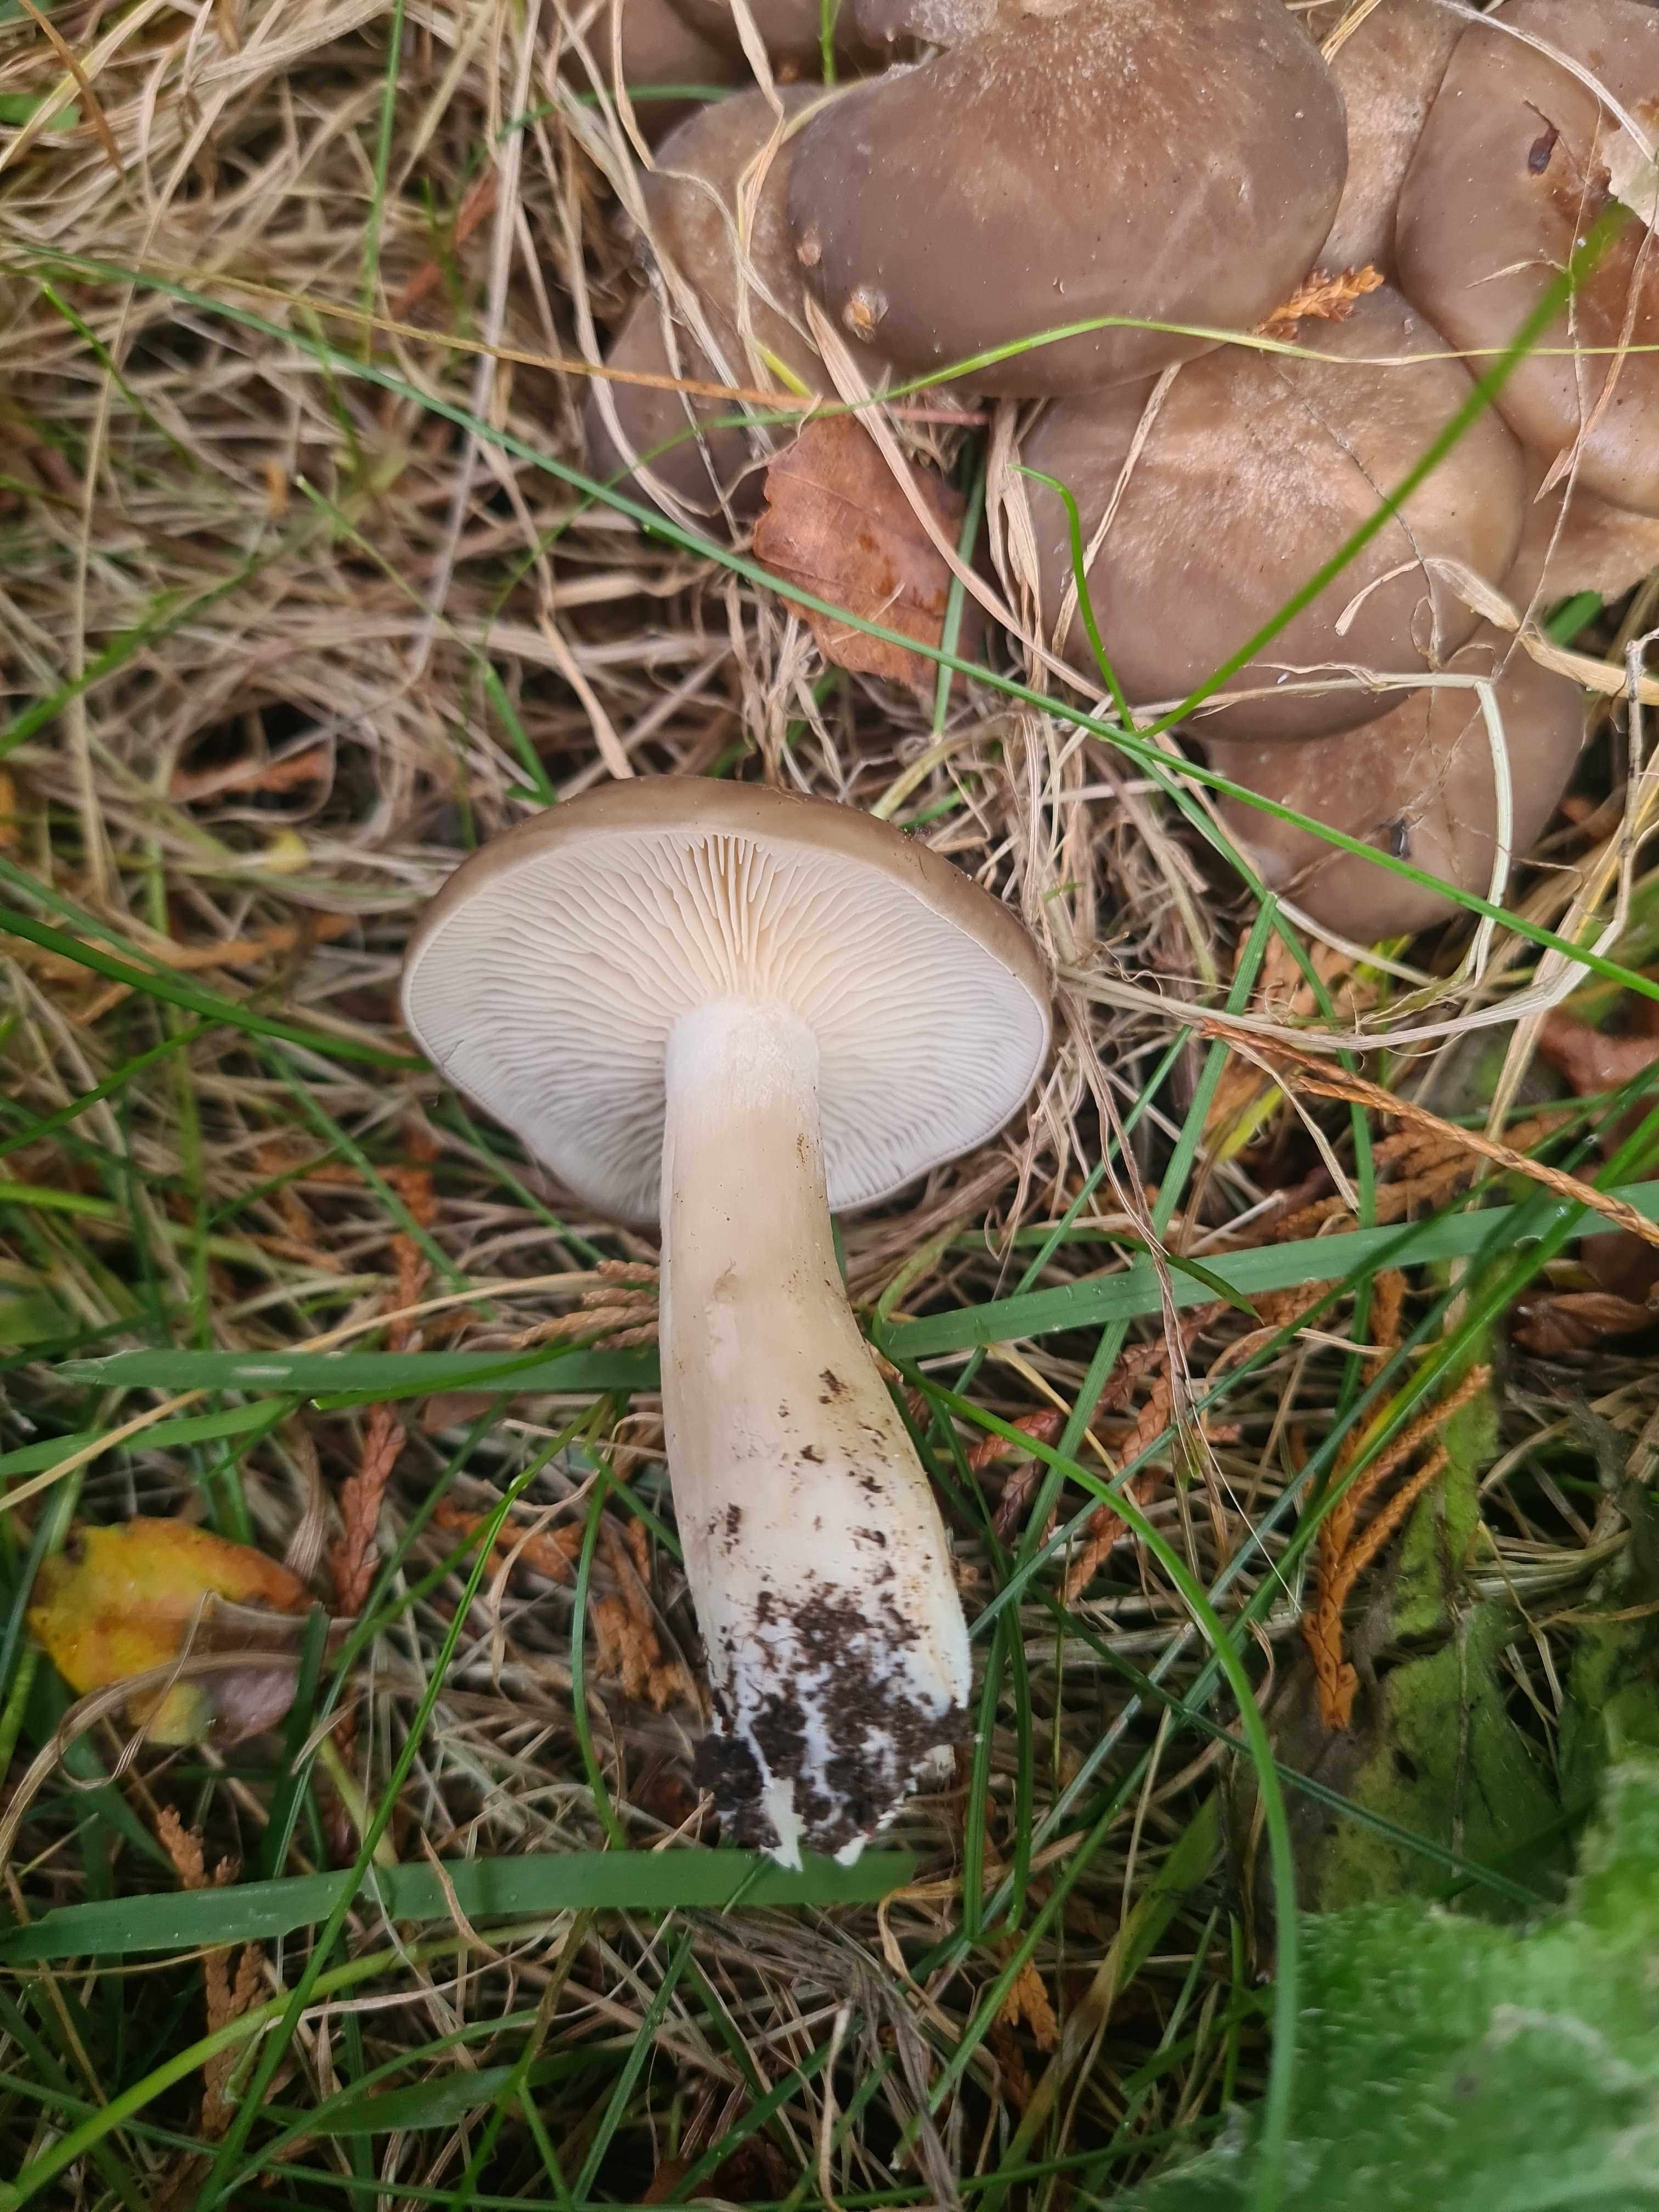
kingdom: Fungi
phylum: Basidiomycota
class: Agaricomycetes
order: Agaricales
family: Lyophyllaceae
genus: Lyophyllum
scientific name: Lyophyllum decastes
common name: røggrå gråblad
